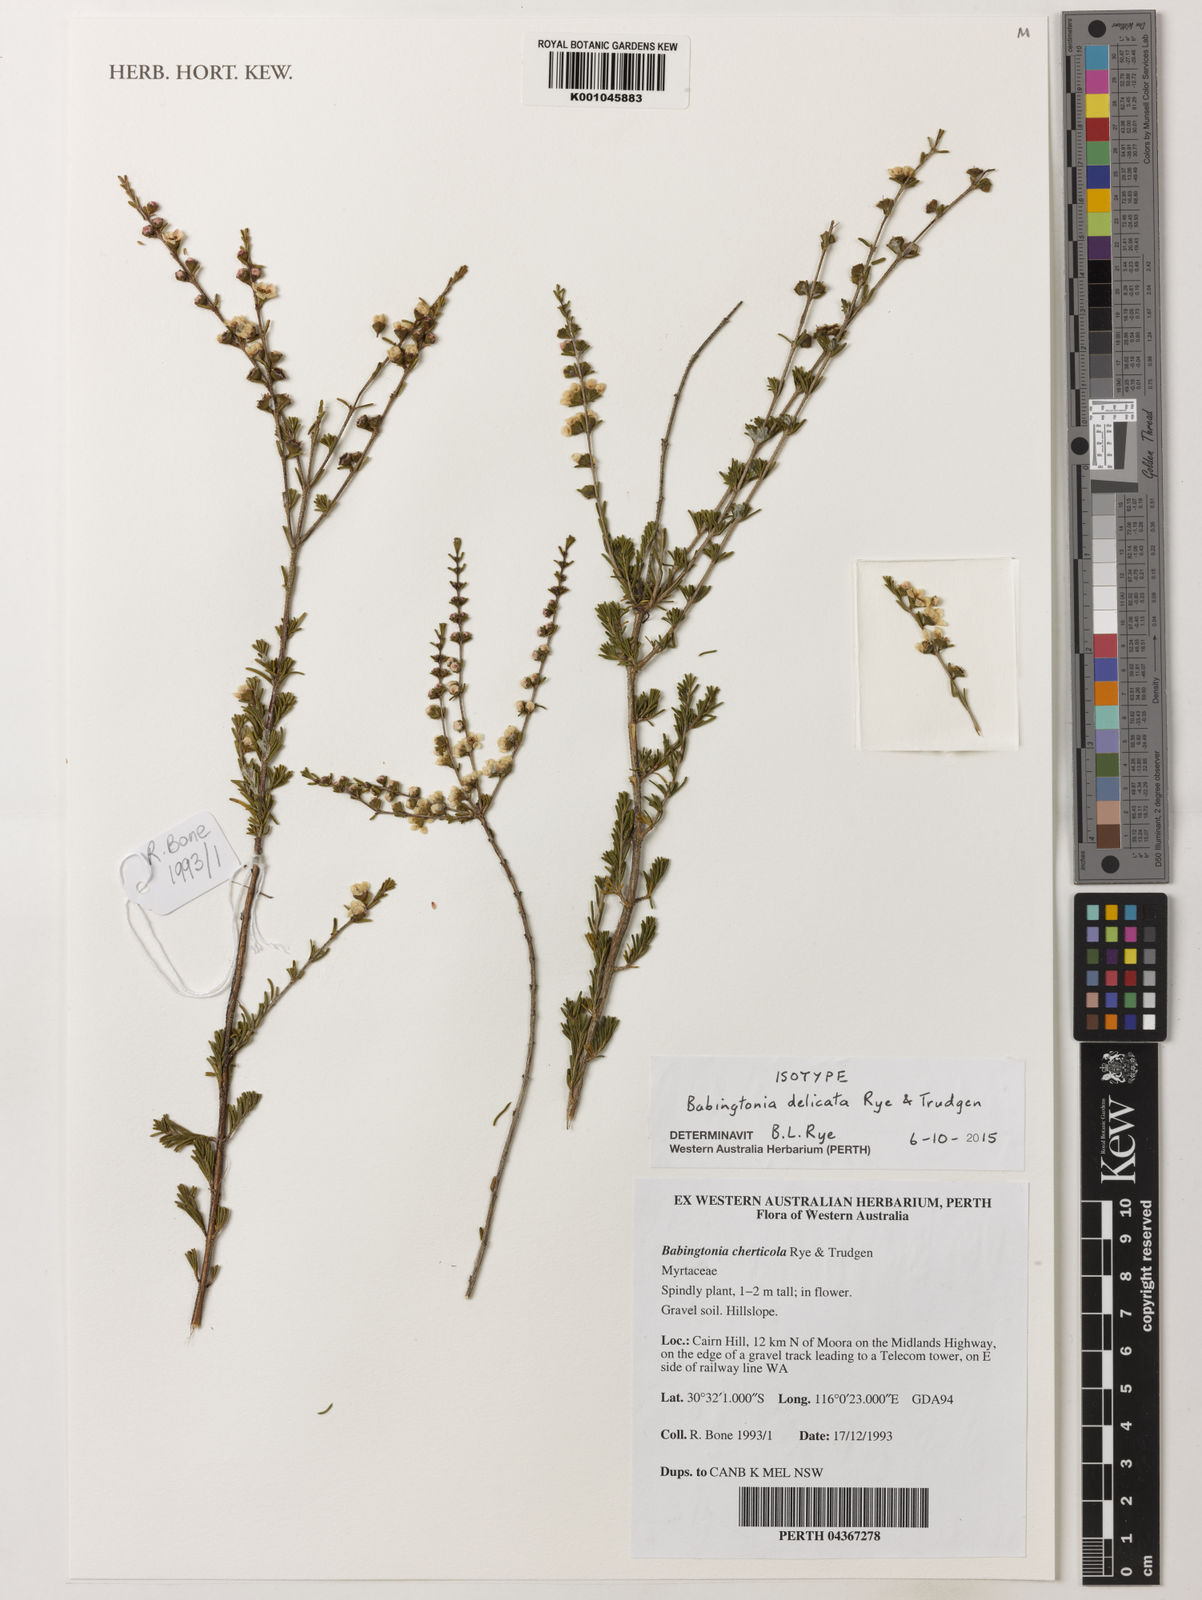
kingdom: Plantae
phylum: Tracheophyta
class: Magnoliopsida
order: Myrtales
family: Myrtaceae
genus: Babingtonia
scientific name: Babingtonia
